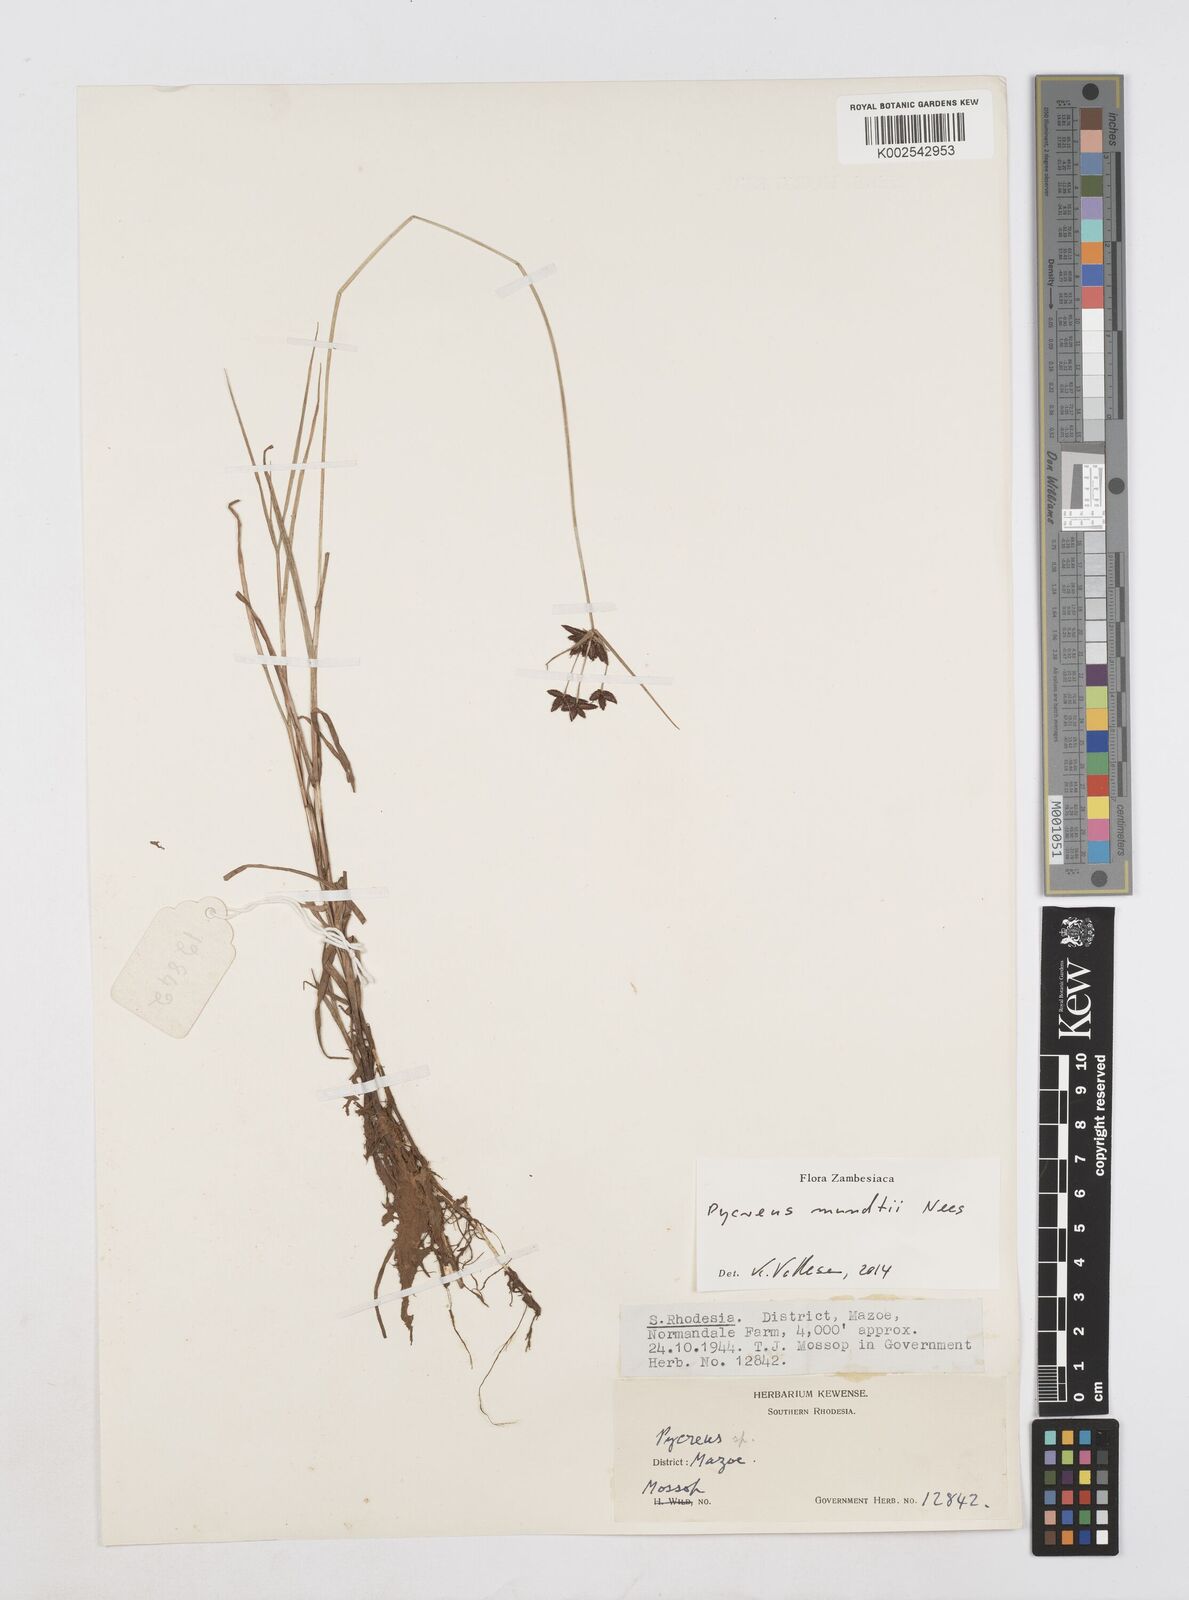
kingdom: Plantae
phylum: Tracheophyta
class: Liliopsida
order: Poales
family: Cyperaceae
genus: Cyperus
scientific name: Cyperus mundii
